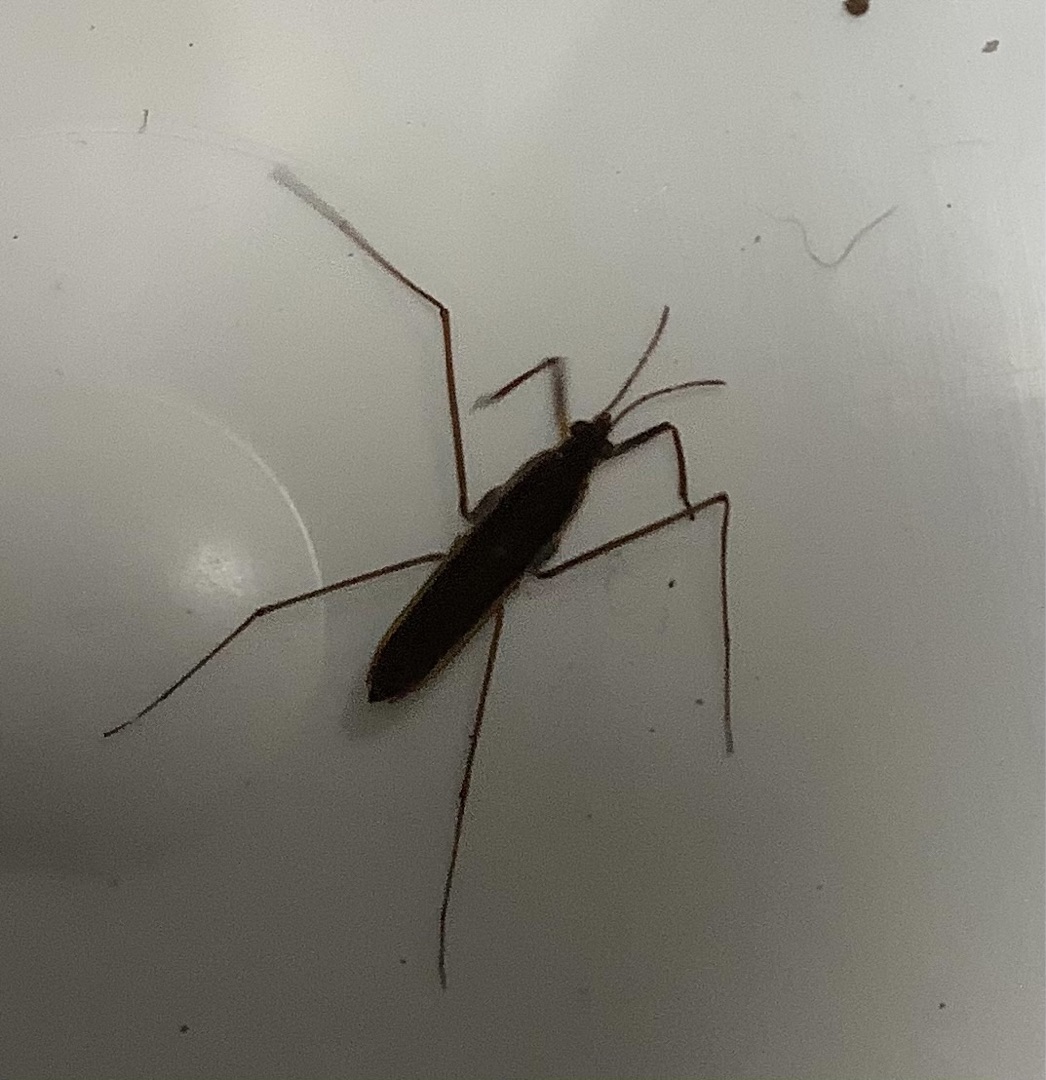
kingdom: Animalia
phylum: Arthropoda
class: Insecta
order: Hemiptera
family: Gerridae
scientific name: Gerridae
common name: Skøjteløbere
